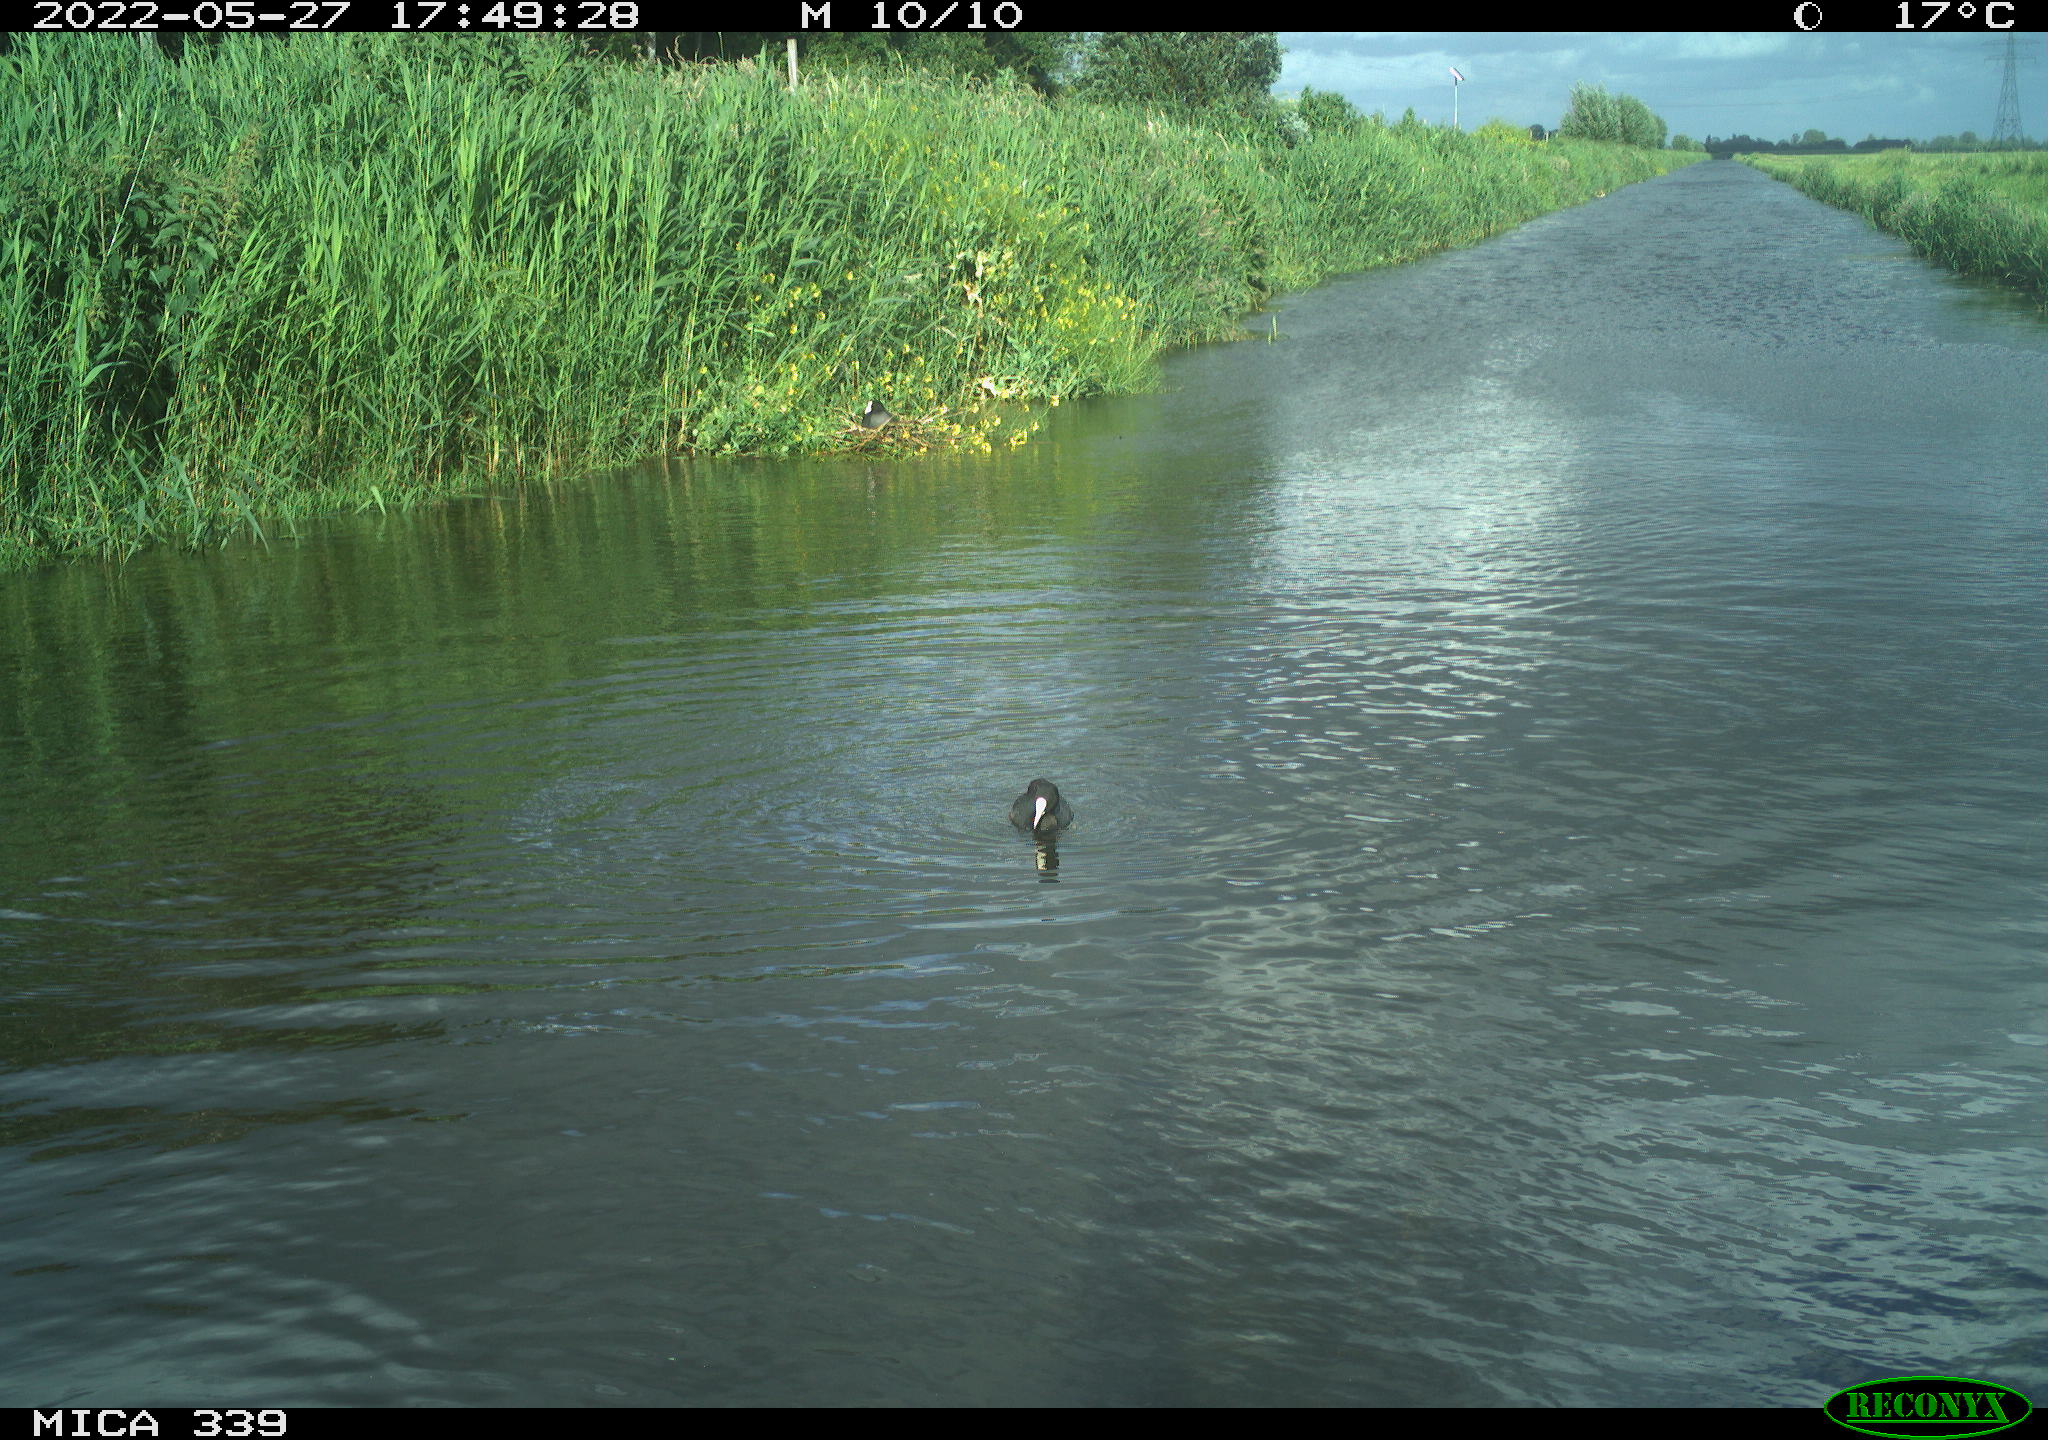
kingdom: Animalia
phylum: Chordata
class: Aves
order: Gruiformes
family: Rallidae
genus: Fulica
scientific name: Fulica atra
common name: Eurasian coot
